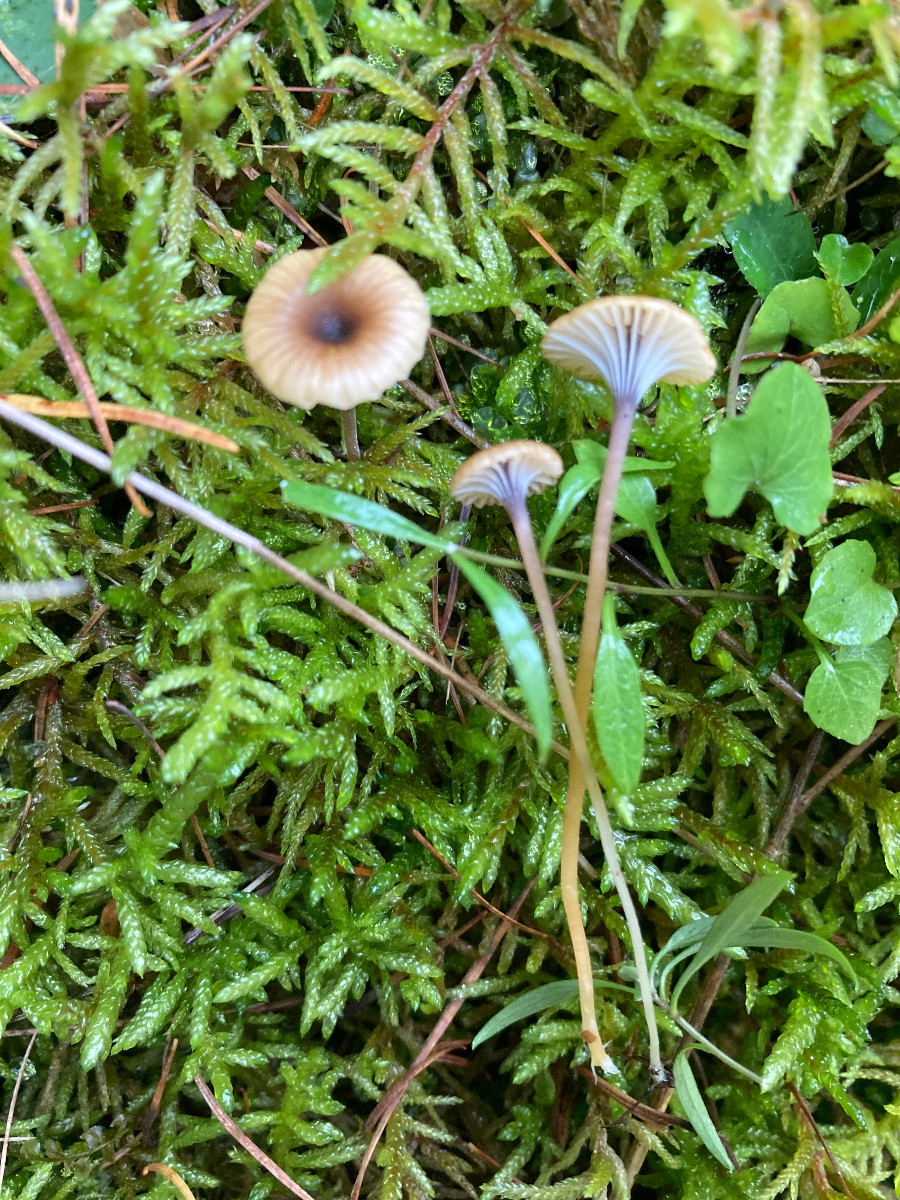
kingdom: Fungi
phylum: Basidiomycota
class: Agaricomycetes
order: Hymenochaetales
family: Rickenellaceae
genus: Rickenella
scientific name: Rickenella swartzii
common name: finstokket mosnavlehat
